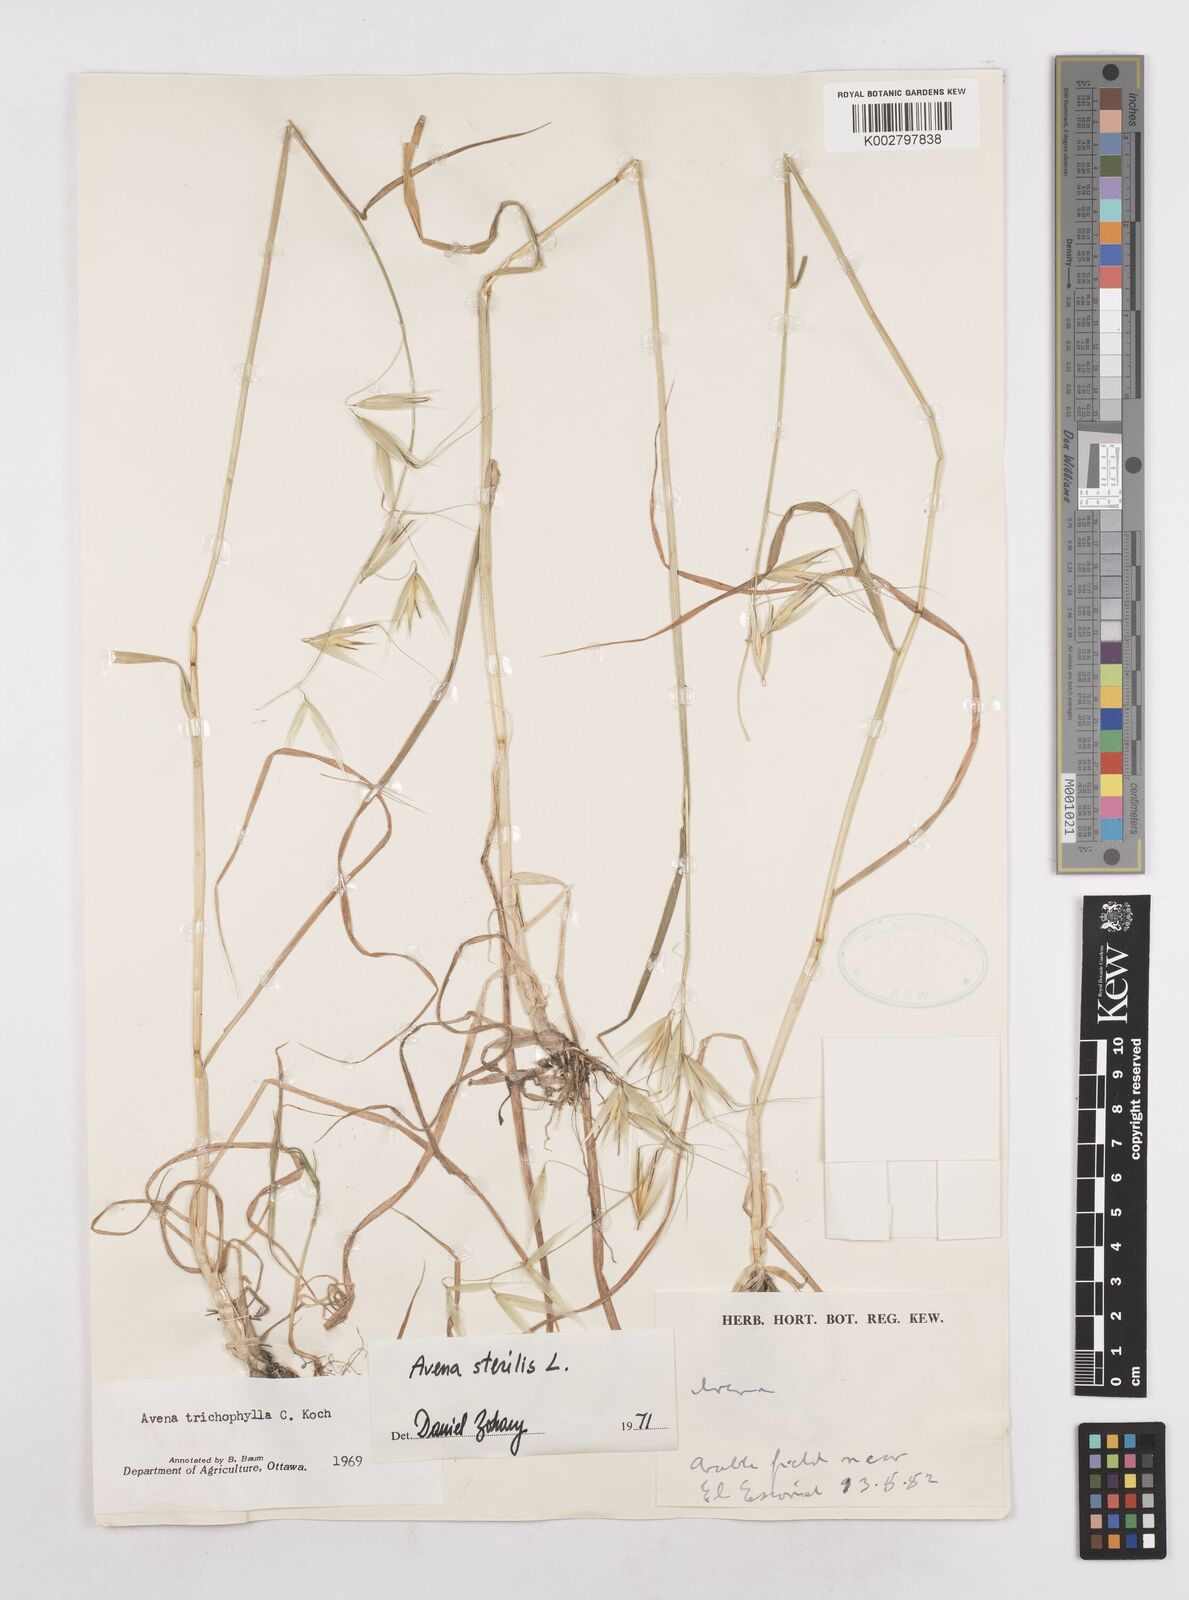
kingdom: Plantae
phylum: Tracheophyta
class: Liliopsida
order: Poales
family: Poaceae
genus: Avena
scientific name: Avena sterilis
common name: Animated oat
